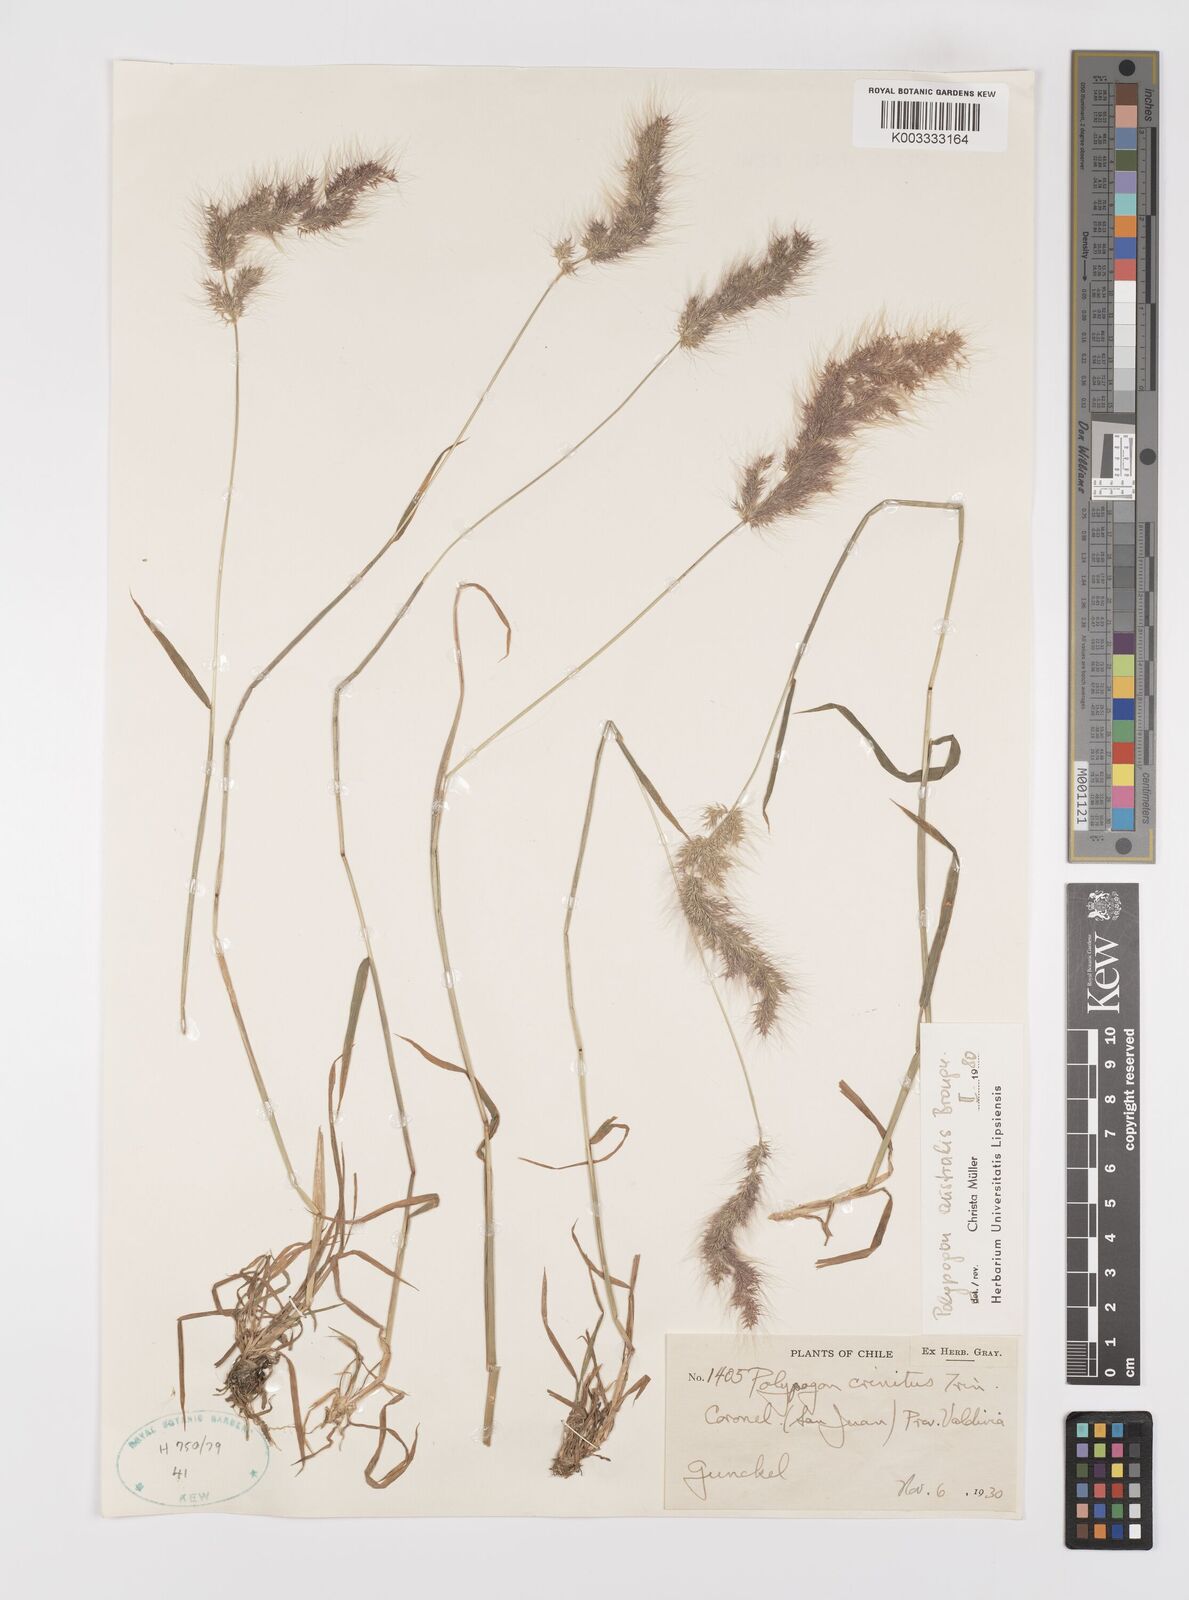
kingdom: Plantae
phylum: Tracheophyta
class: Liliopsida
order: Poales
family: Poaceae
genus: Polypogon
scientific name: Polypogon australis
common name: Chilean rabbitsfoot grass
